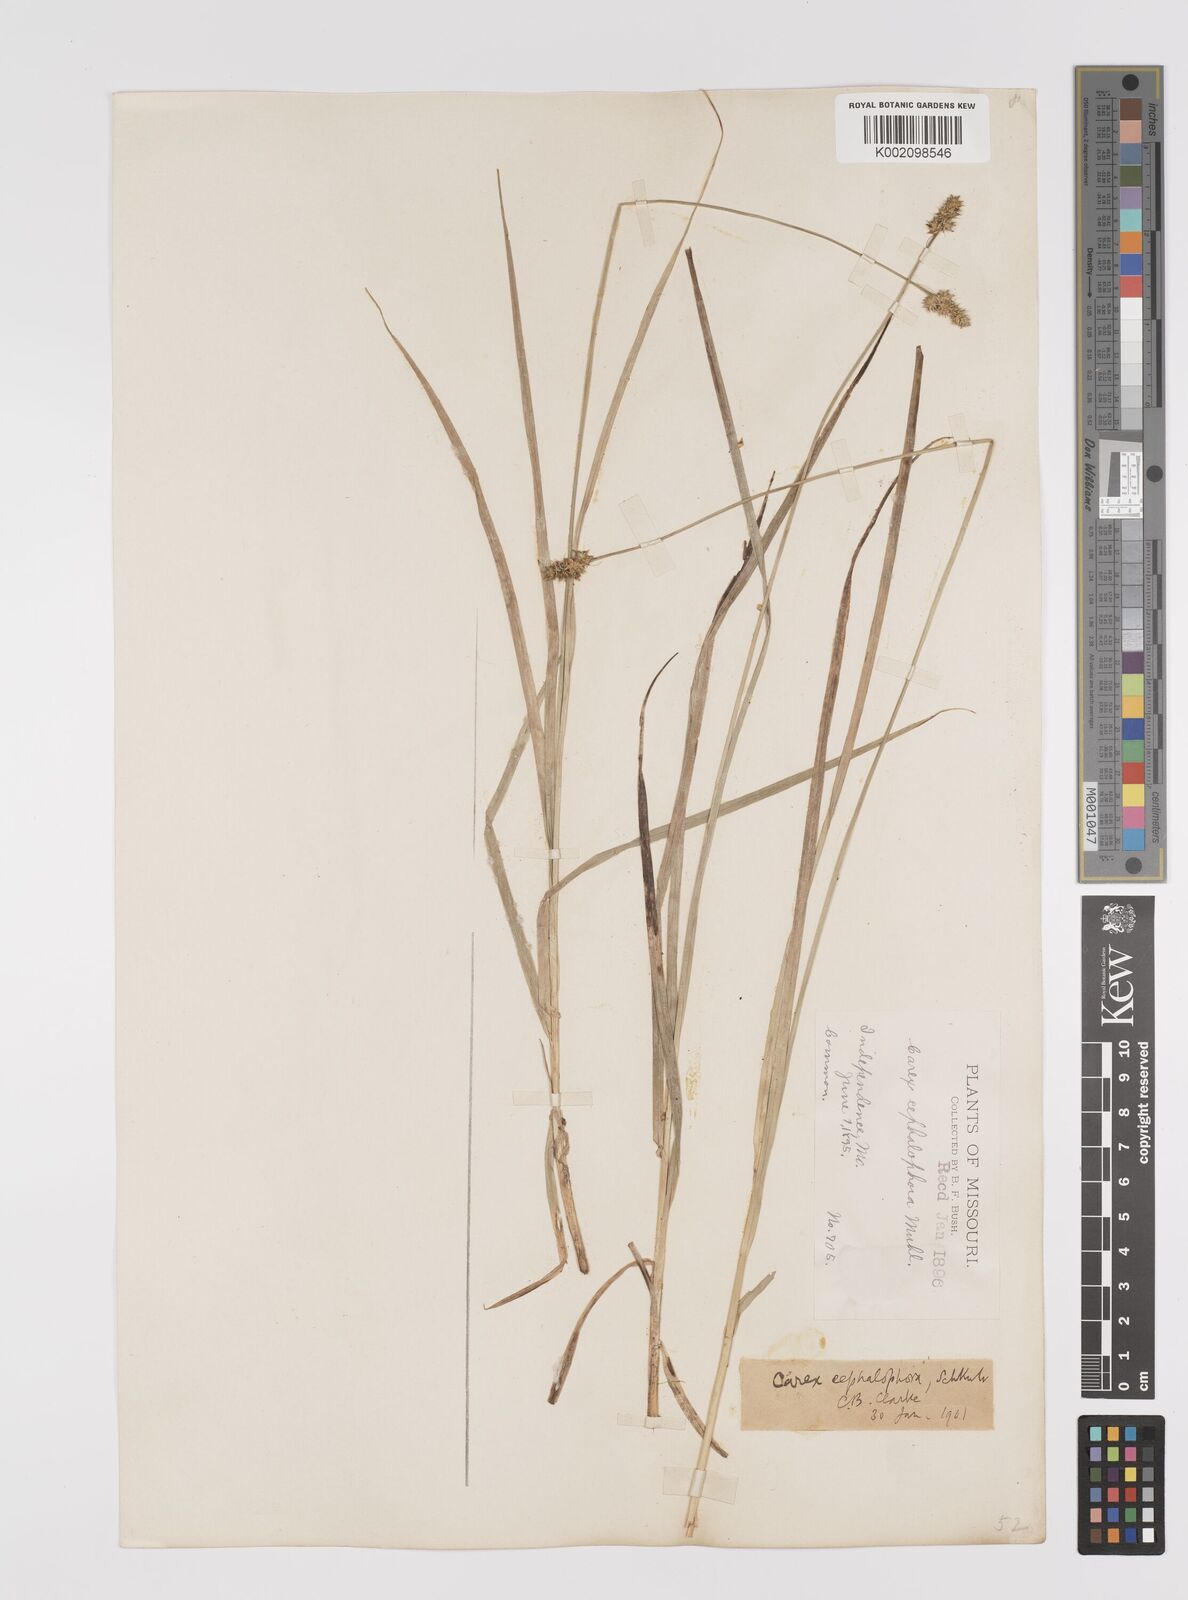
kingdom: Plantae
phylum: Tracheophyta
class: Liliopsida
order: Poales
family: Cyperaceae
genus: Carex
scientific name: Carex cephalophora
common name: Oval-headed sedge
